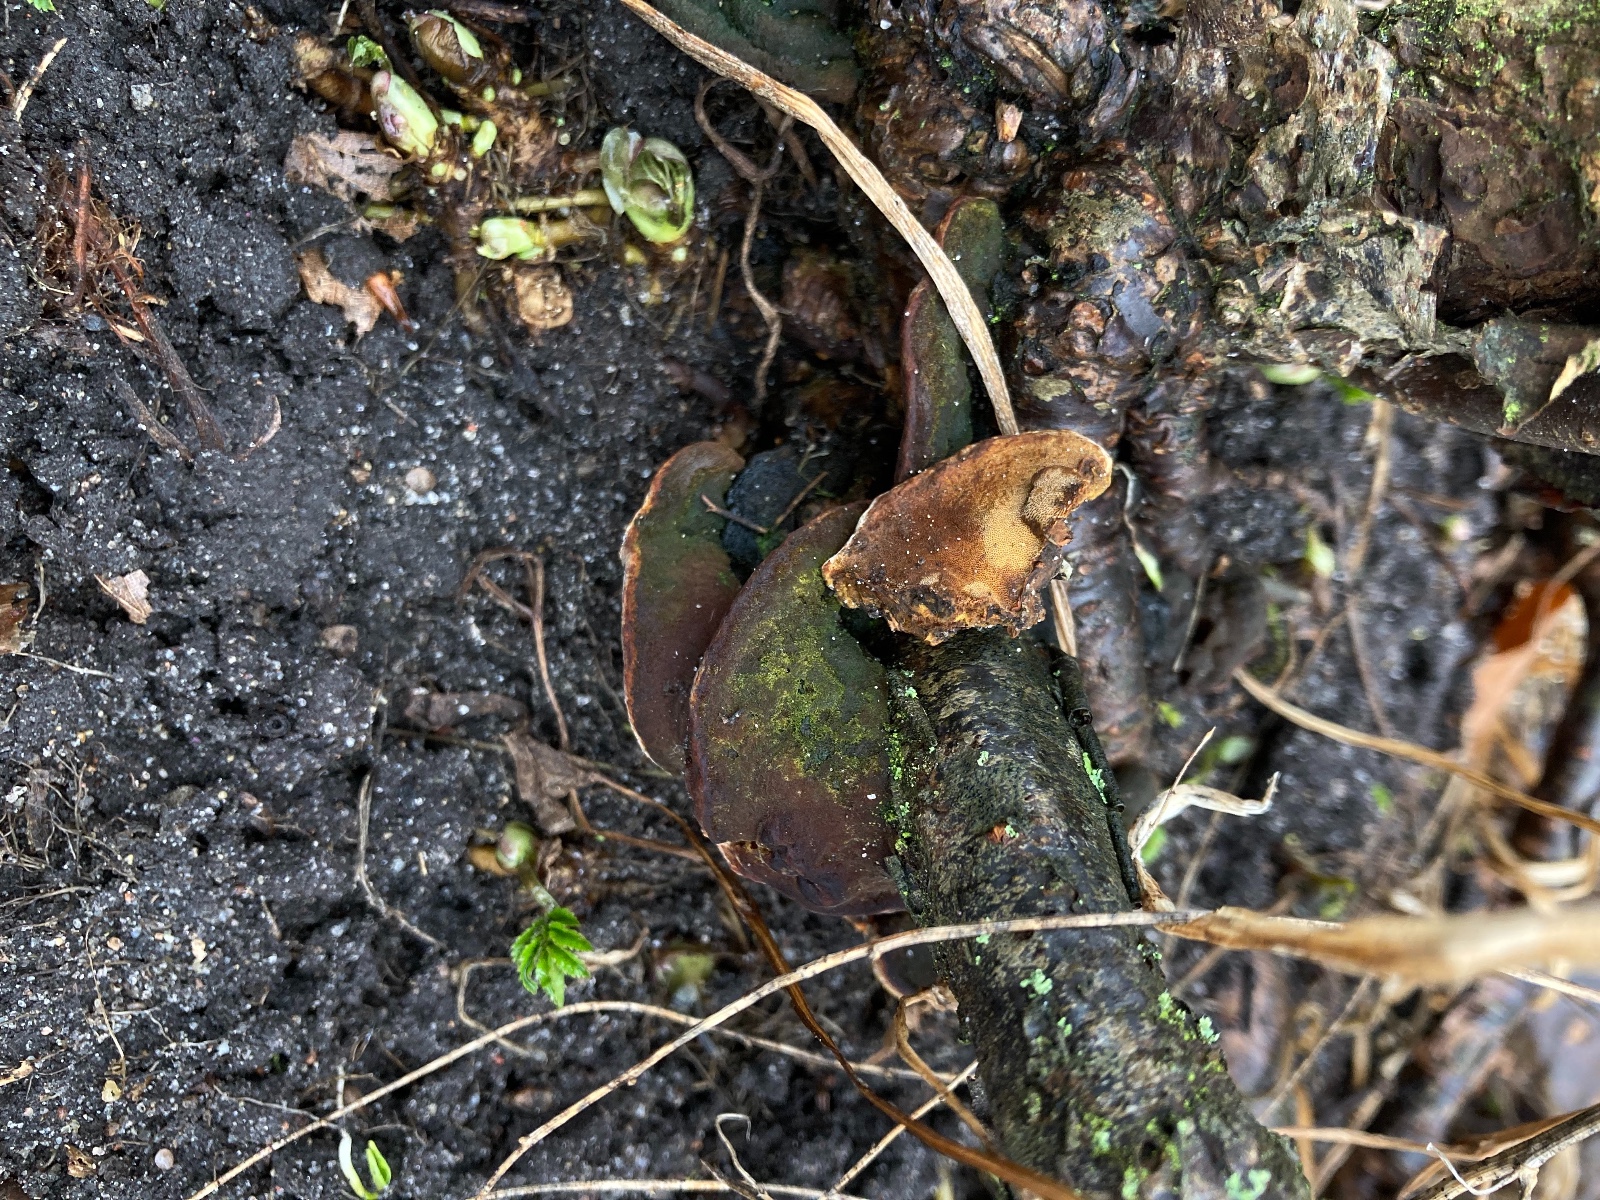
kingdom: Fungi
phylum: Basidiomycota
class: Agaricomycetes
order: Hymenochaetales
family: Hymenochaetaceae
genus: Phylloporia
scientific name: Phylloporia ribis
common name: ribs-ildporesvamp
